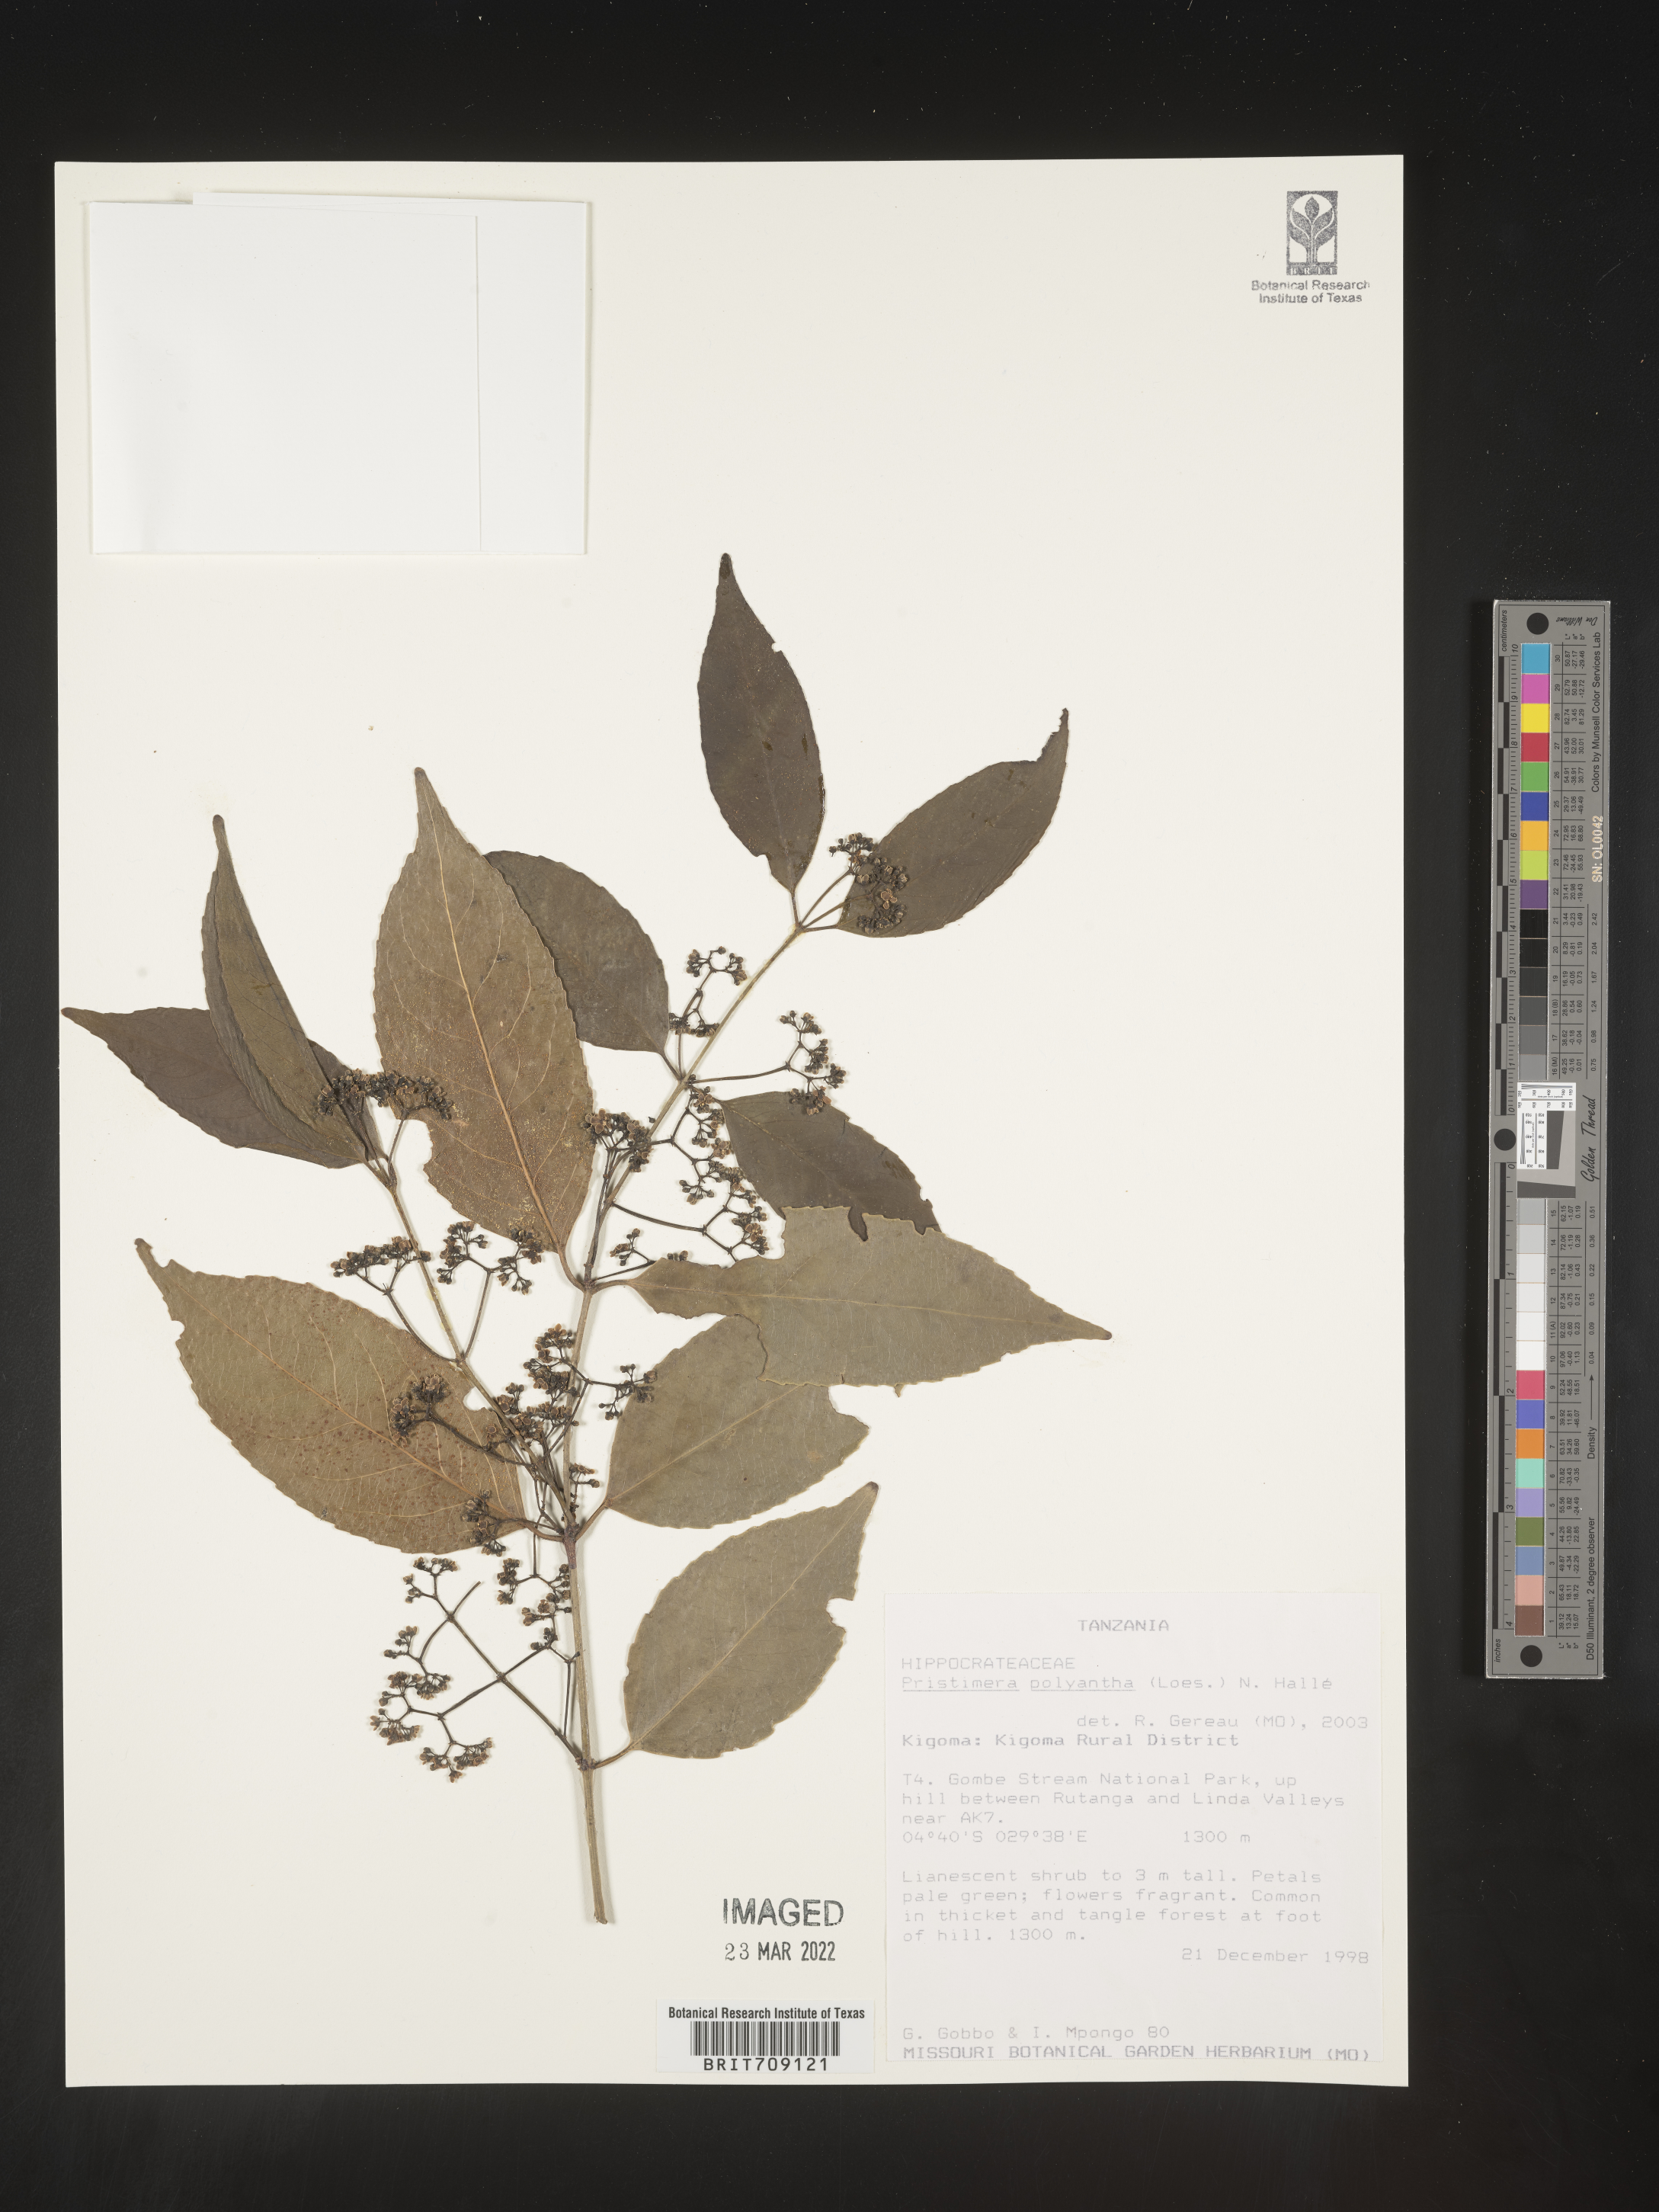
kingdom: Plantae
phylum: Tracheophyta
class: Magnoliopsida
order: Celastrales
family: Celastraceae
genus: Pristimera
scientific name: Pristimera
